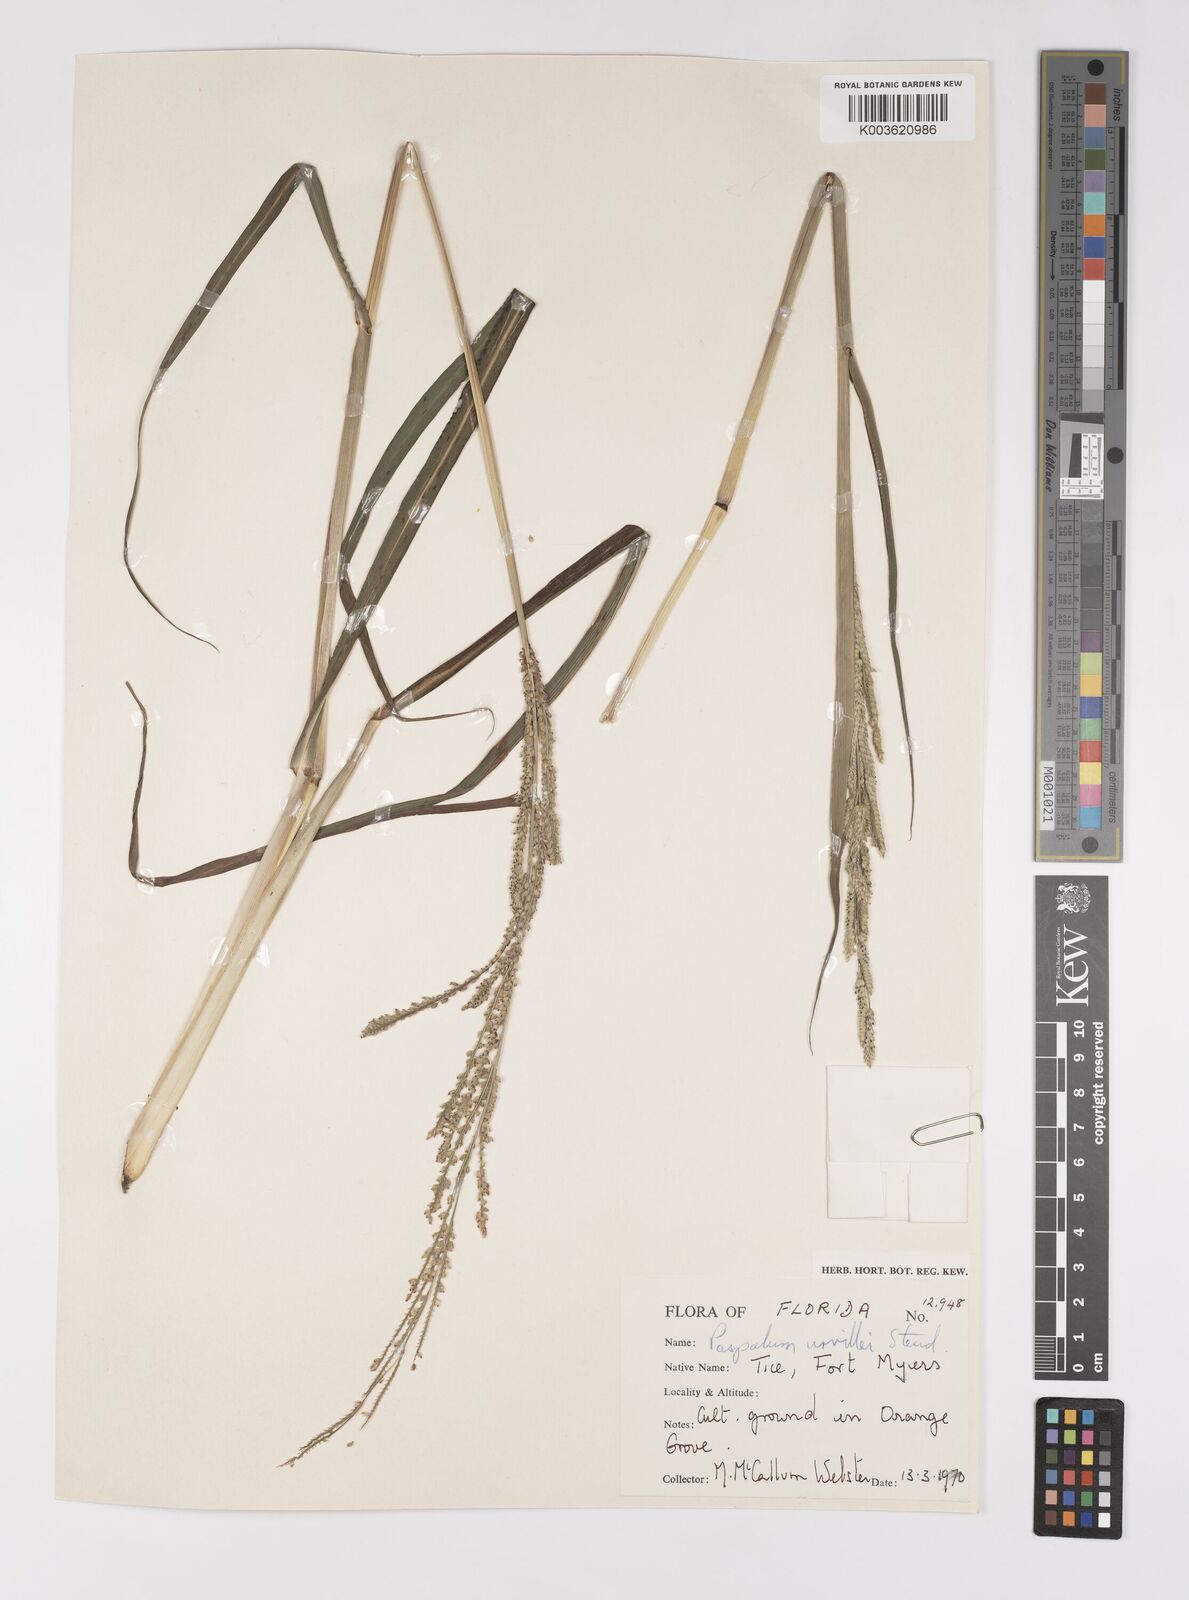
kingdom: Plantae
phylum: Tracheophyta
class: Liliopsida
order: Poales
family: Poaceae
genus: Paspalum
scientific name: Paspalum urvillei
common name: Vasey's grass
